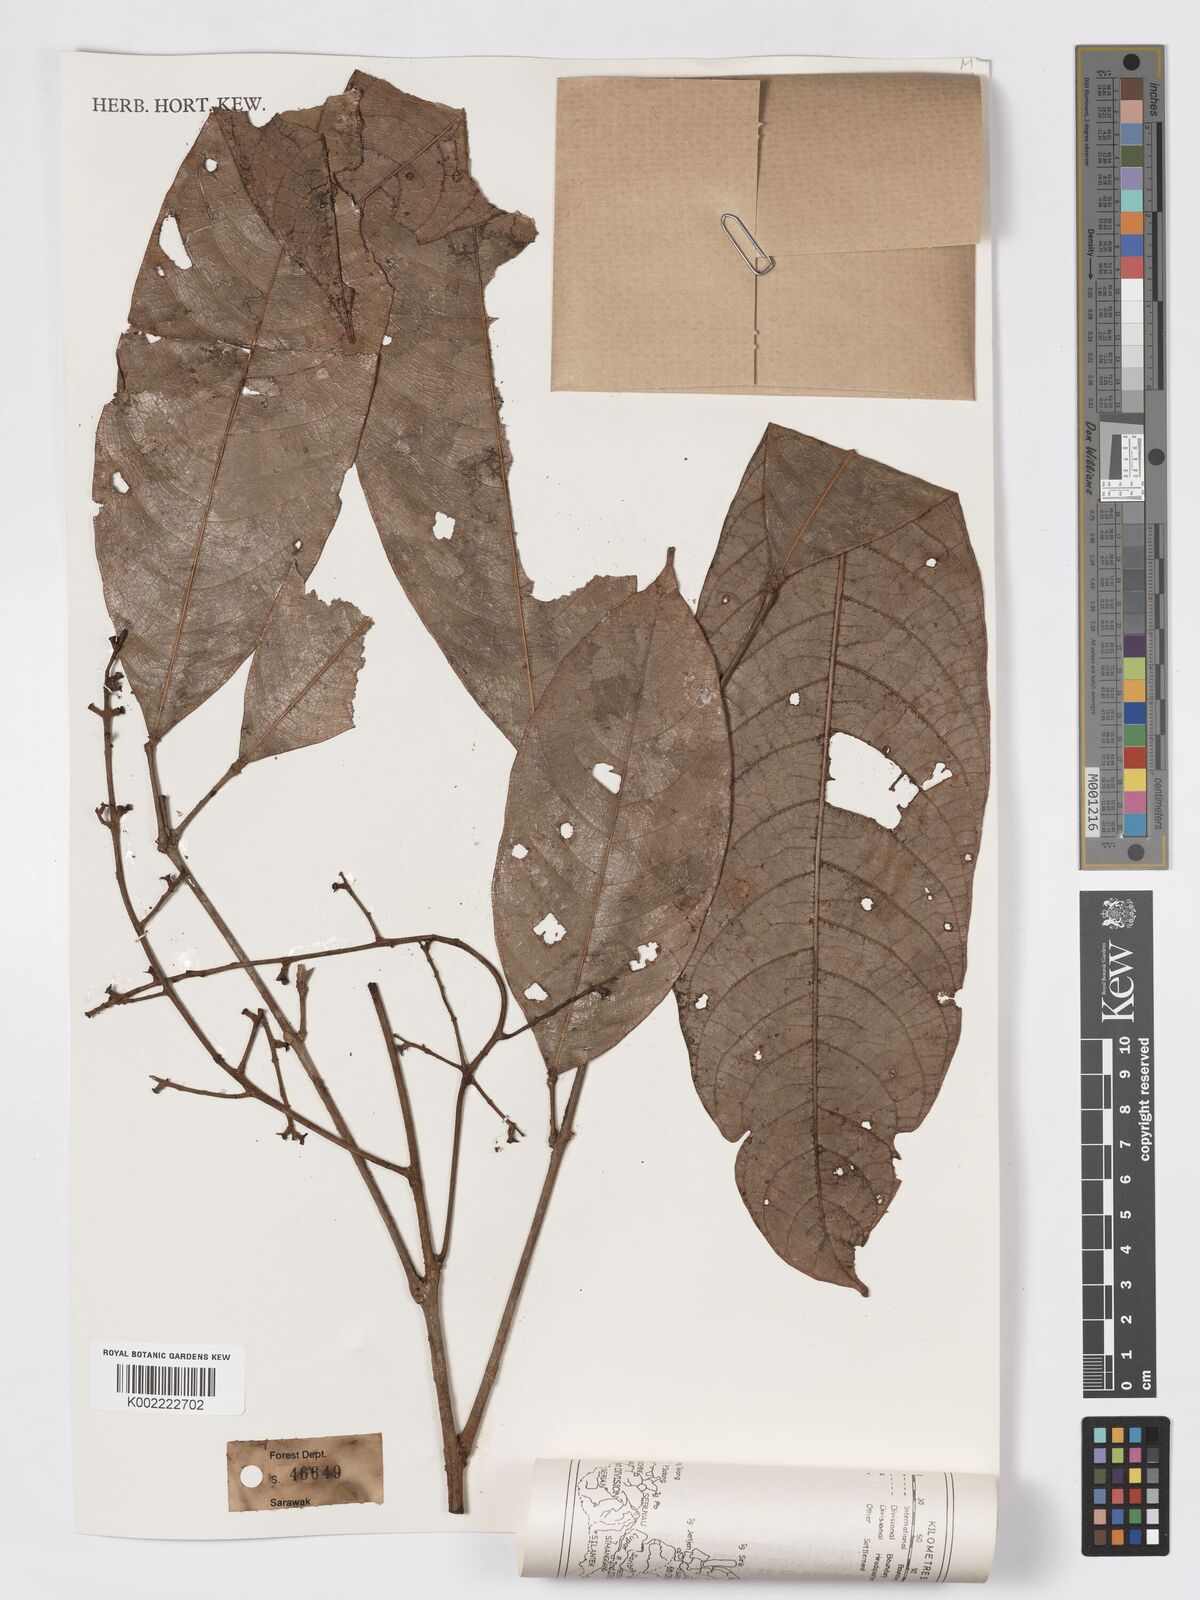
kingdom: Plantae
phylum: Tracheophyta
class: Magnoliopsida
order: Sapindales
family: Burseraceae
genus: Dacryodes
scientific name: Dacryodes rugosa
